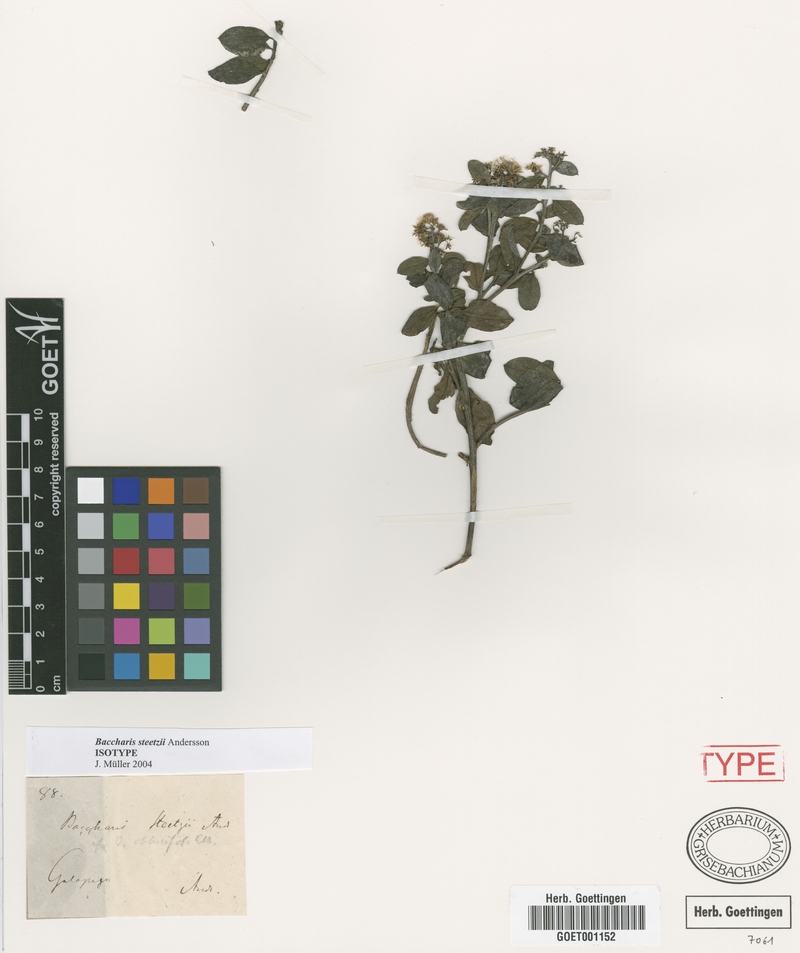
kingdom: Plantae
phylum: Tracheophyta
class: Magnoliopsida
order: Asterales
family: Asteraceae
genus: Baccharis
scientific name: Baccharis steetzii
